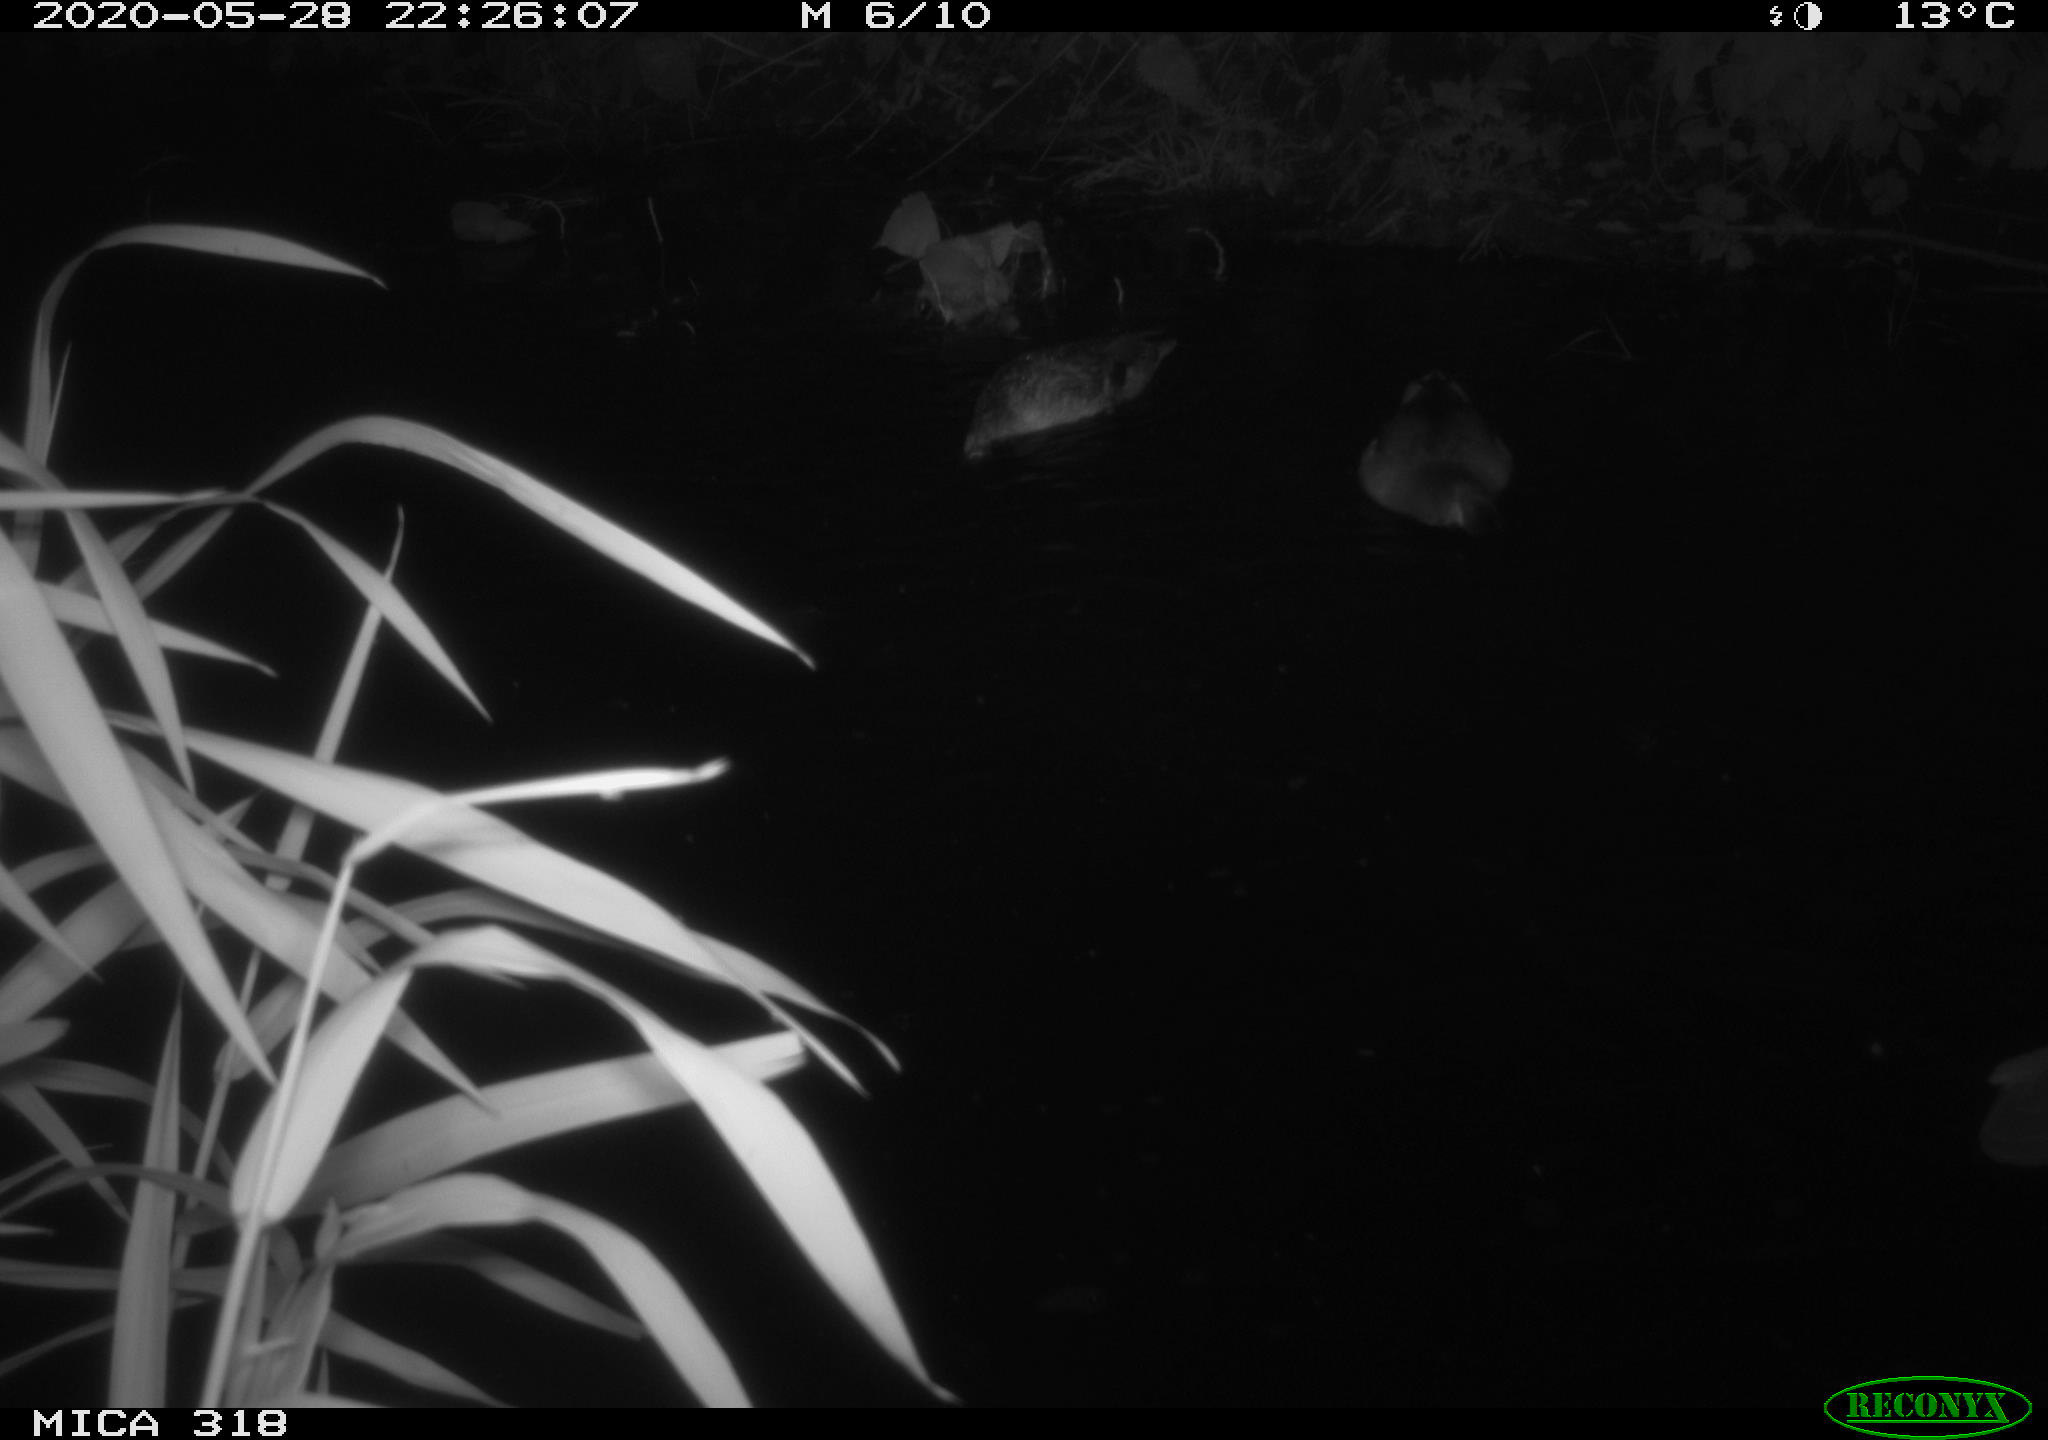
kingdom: Animalia
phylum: Chordata
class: Aves
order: Anseriformes
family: Anatidae
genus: Anas
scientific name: Anas platyrhynchos
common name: Mallard
